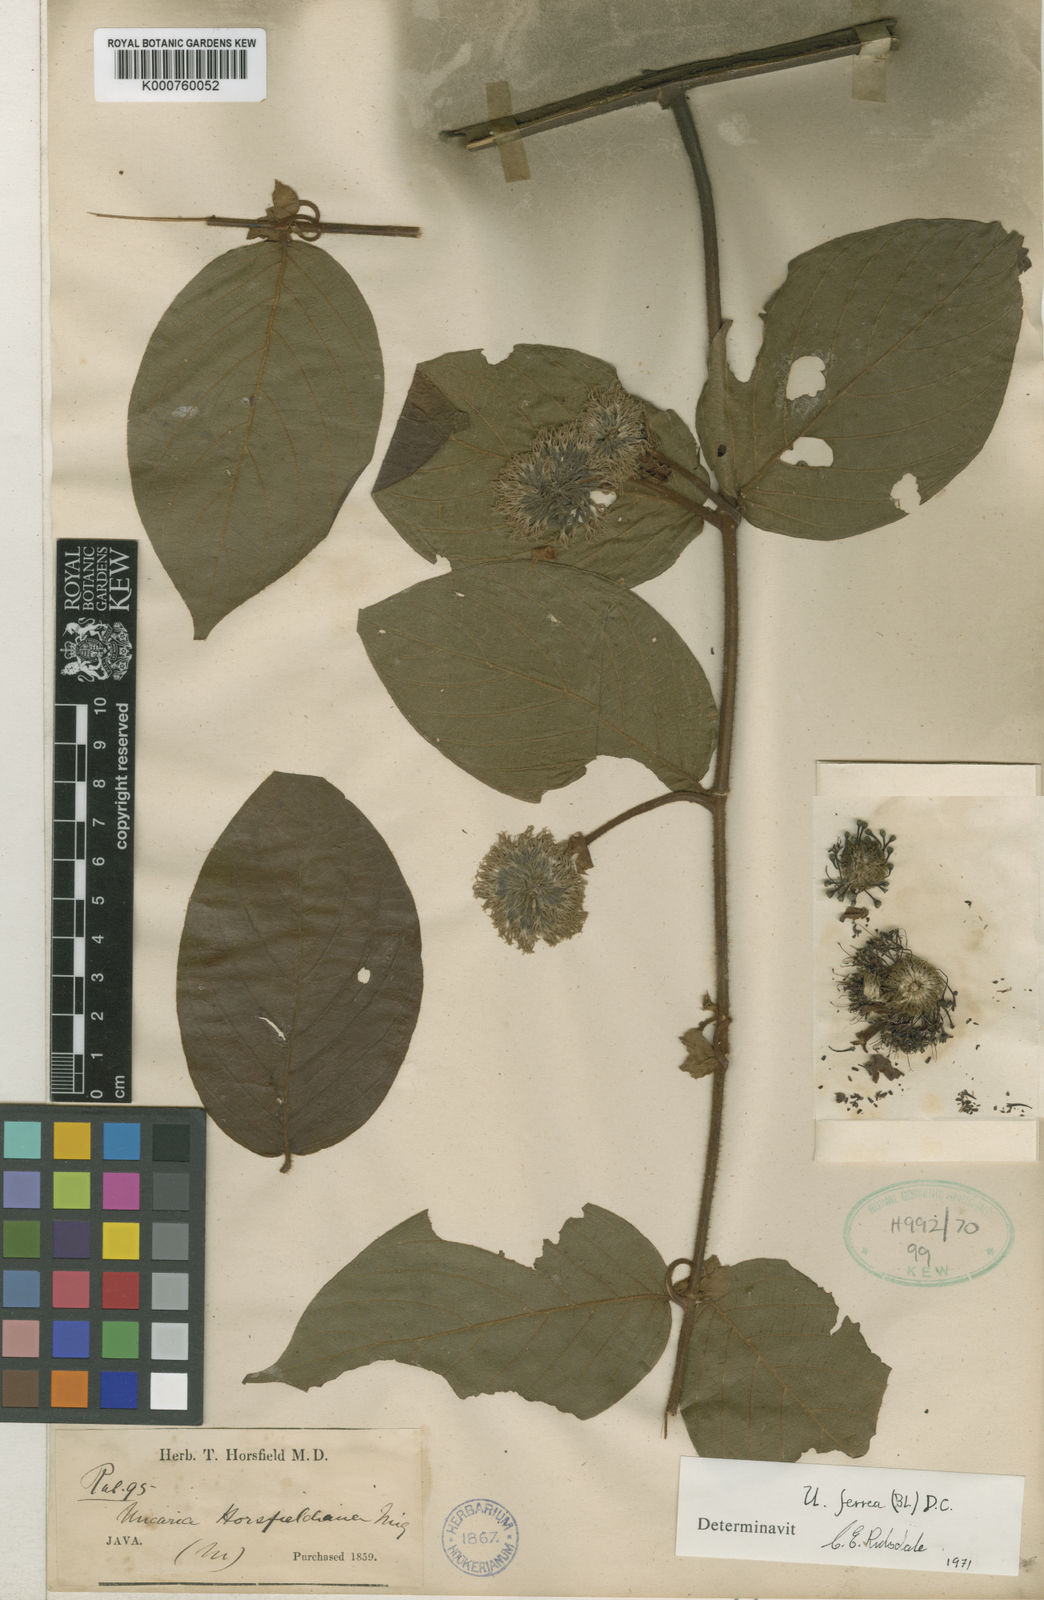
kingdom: Plantae
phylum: Tracheophyta
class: Magnoliopsida
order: Gentianales
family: Rubiaceae
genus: Uncaria
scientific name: Uncaria lanosa
